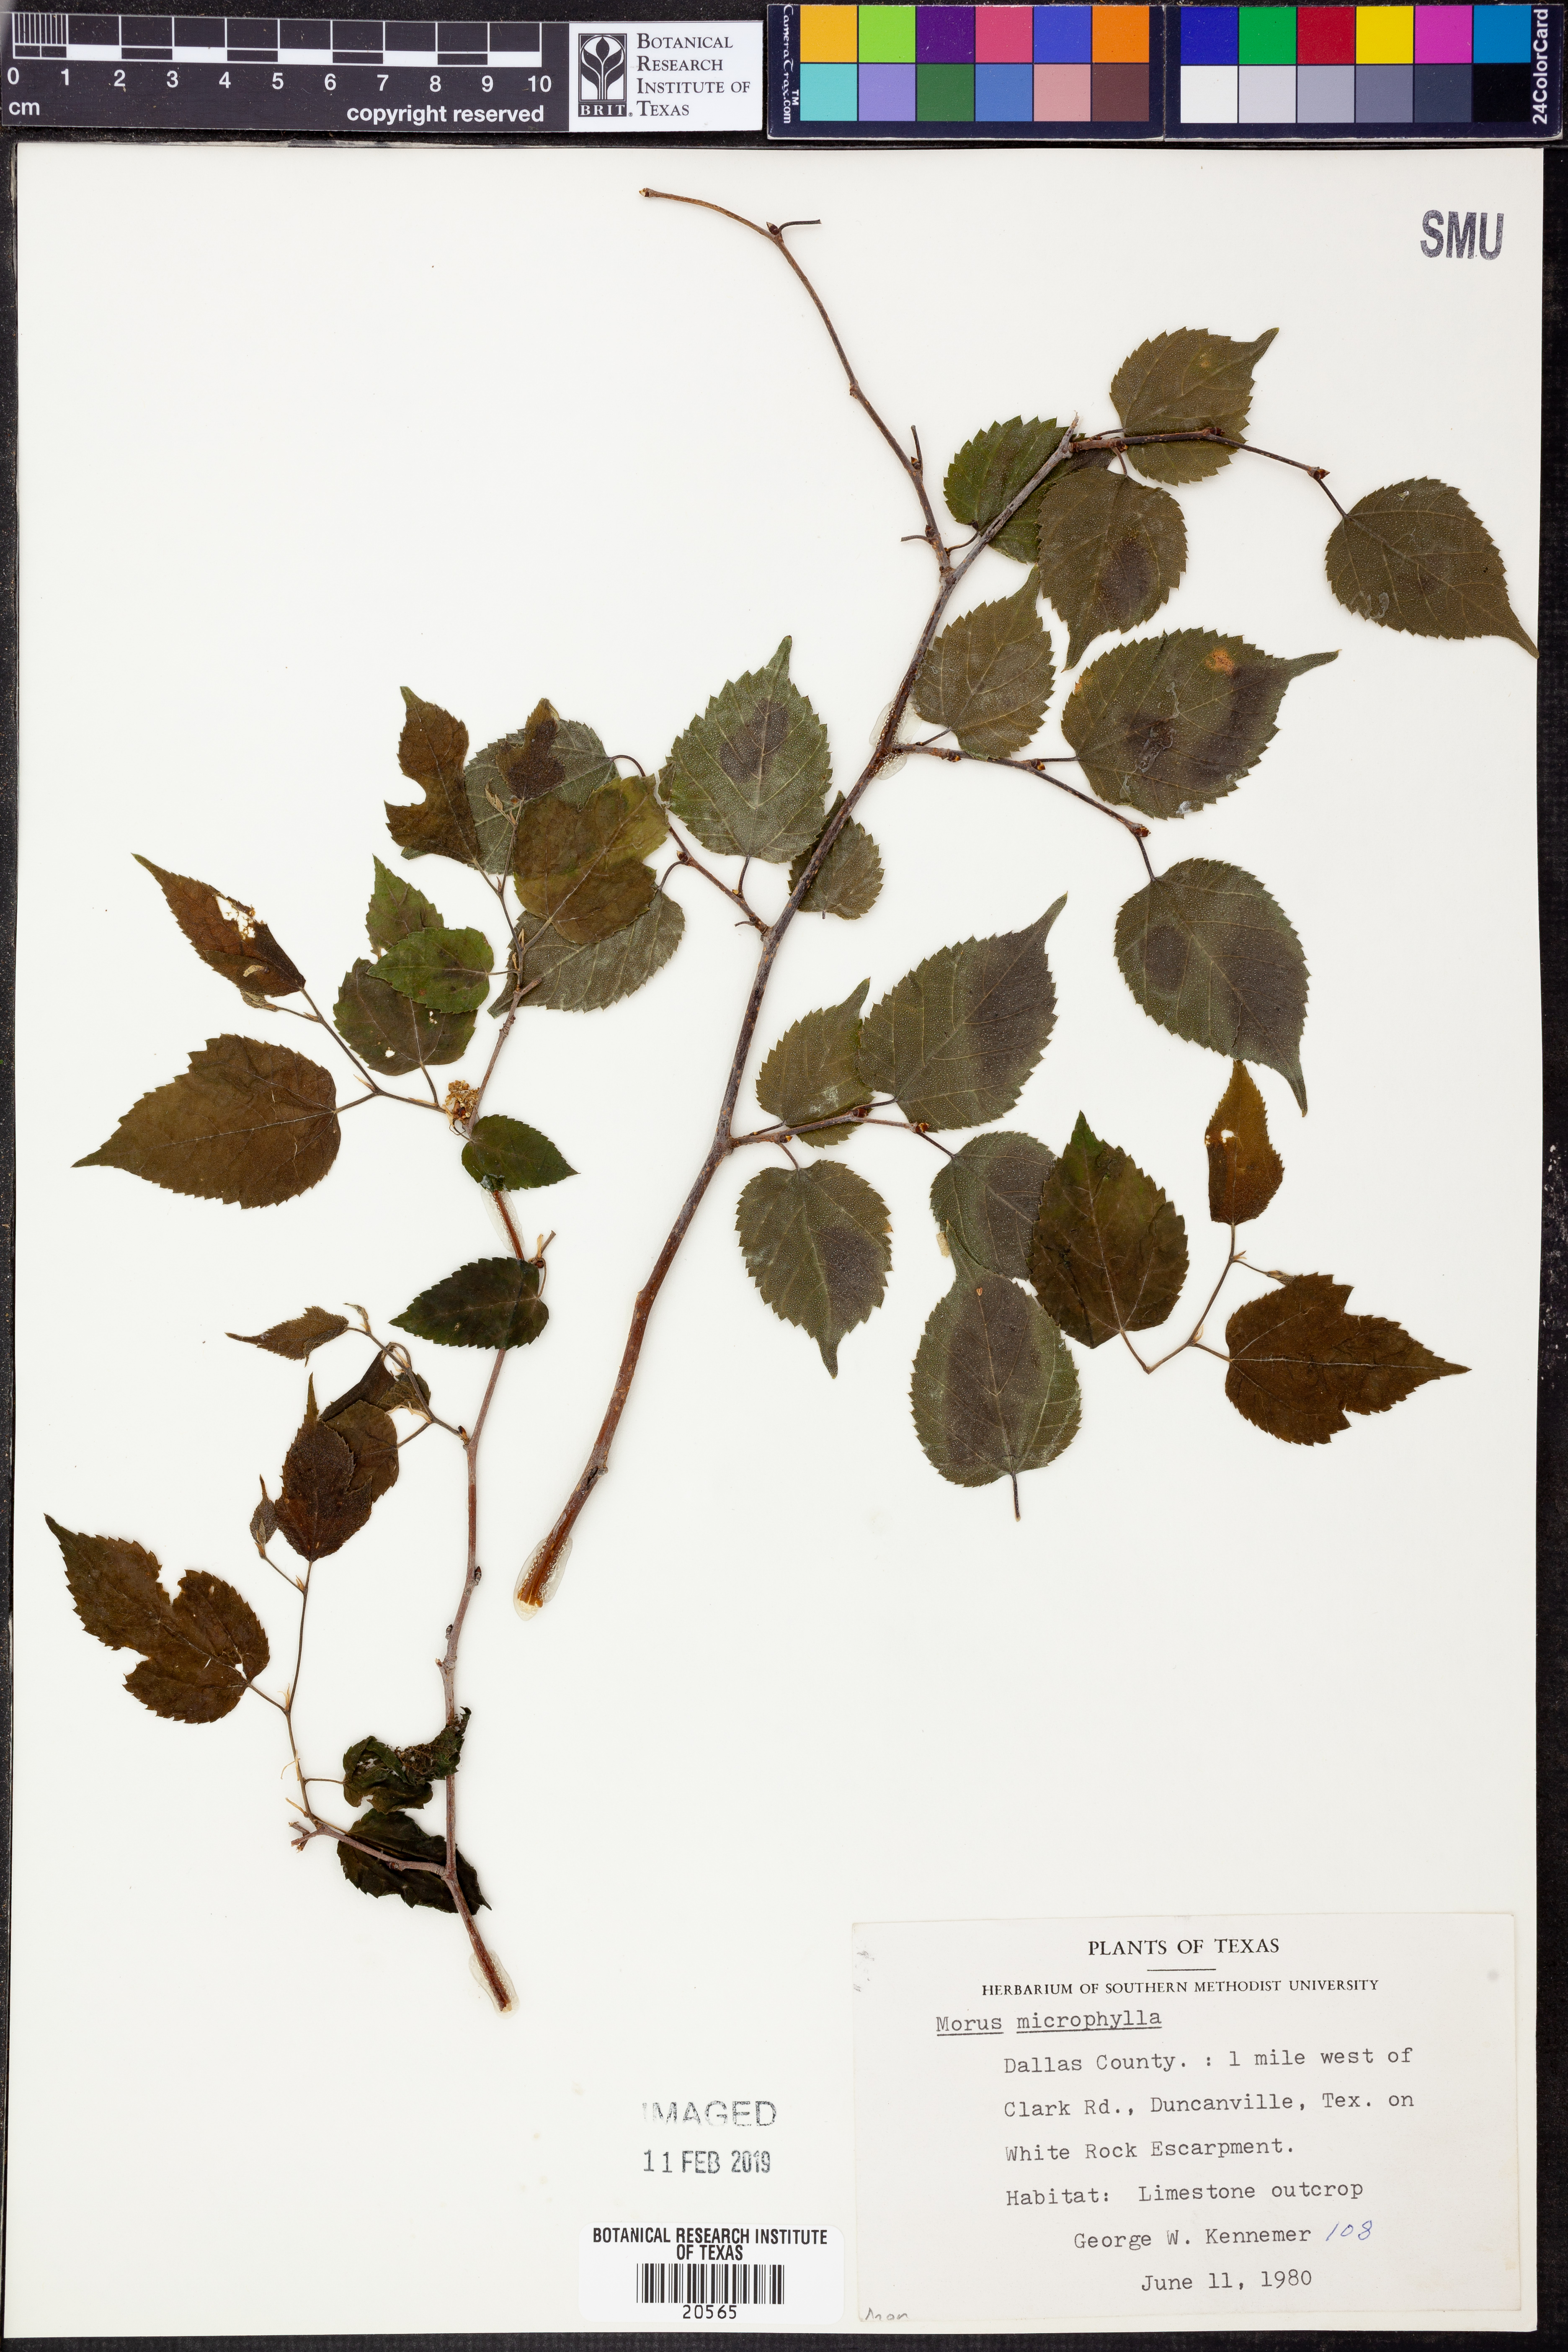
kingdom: Plantae
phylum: Tracheophyta
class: Magnoliopsida
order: Rosales
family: Moraceae
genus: Morus
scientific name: Morus microphylla
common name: Mexican mulberry
